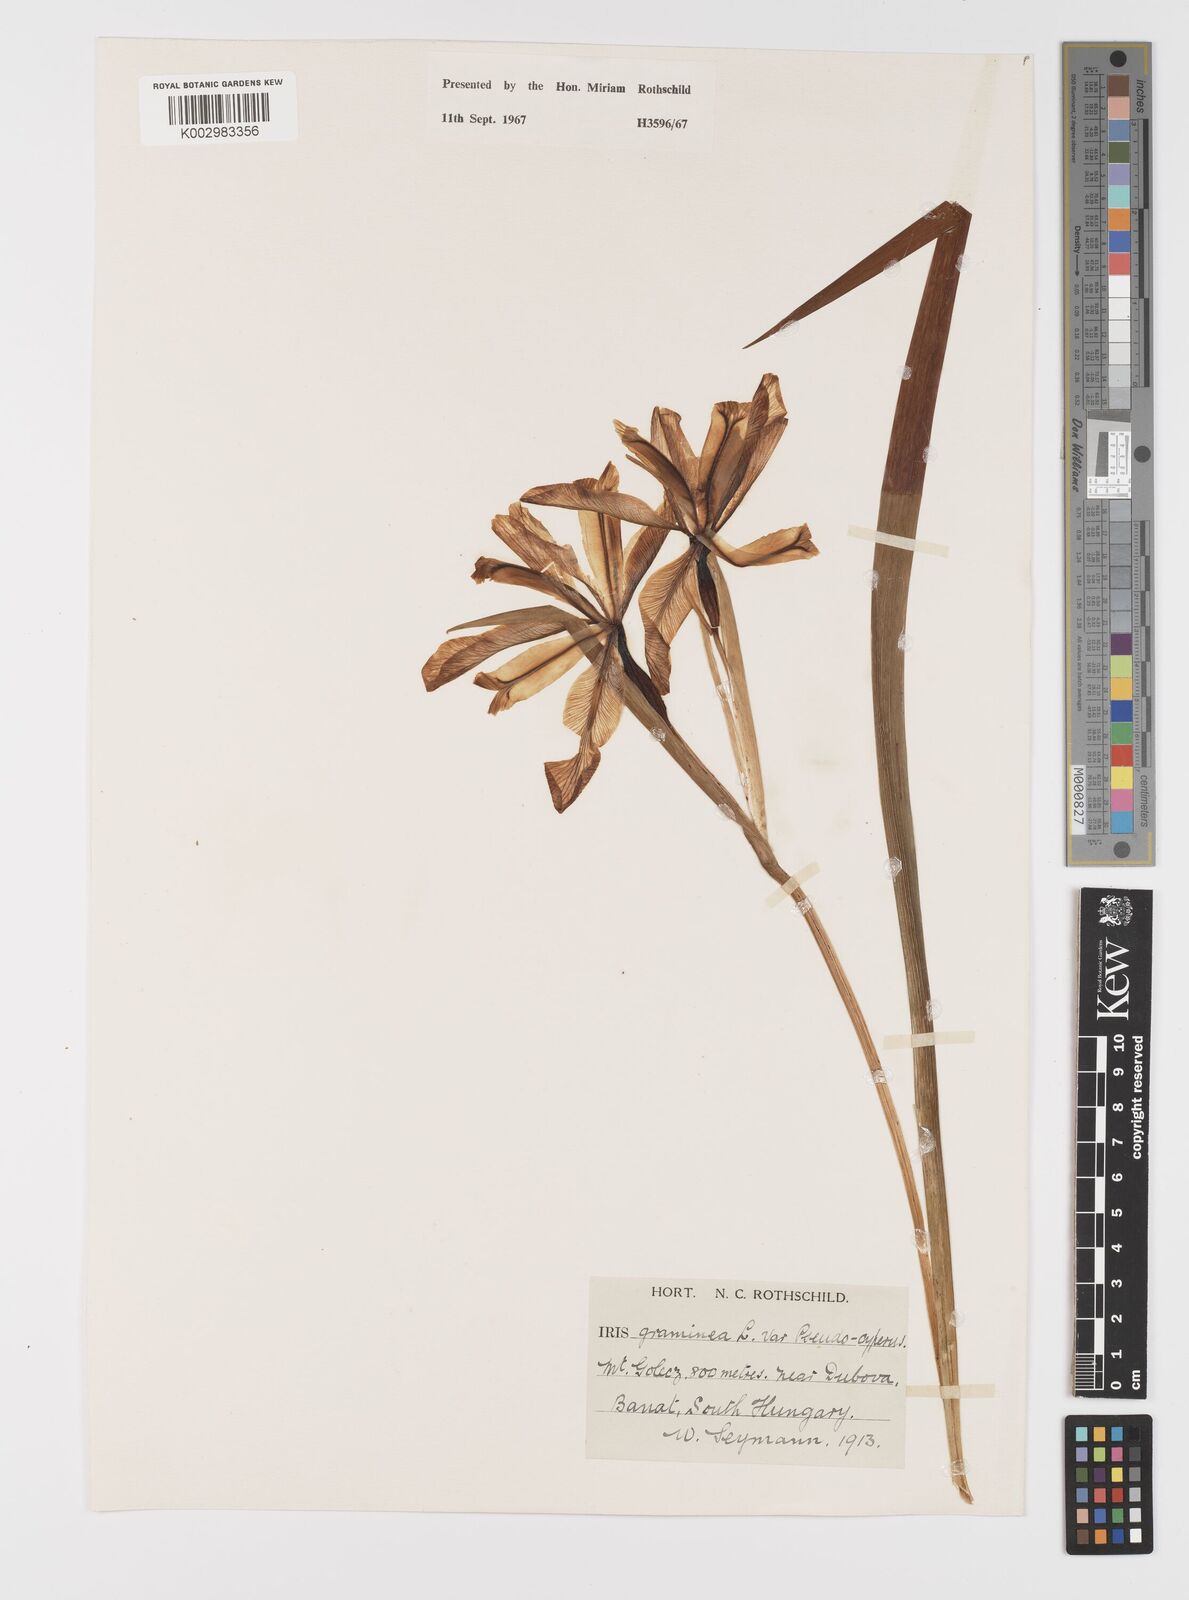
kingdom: Plantae
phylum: Tracheophyta
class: Liliopsida
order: Asparagales
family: Iridaceae
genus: Iris
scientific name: Iris graminea
